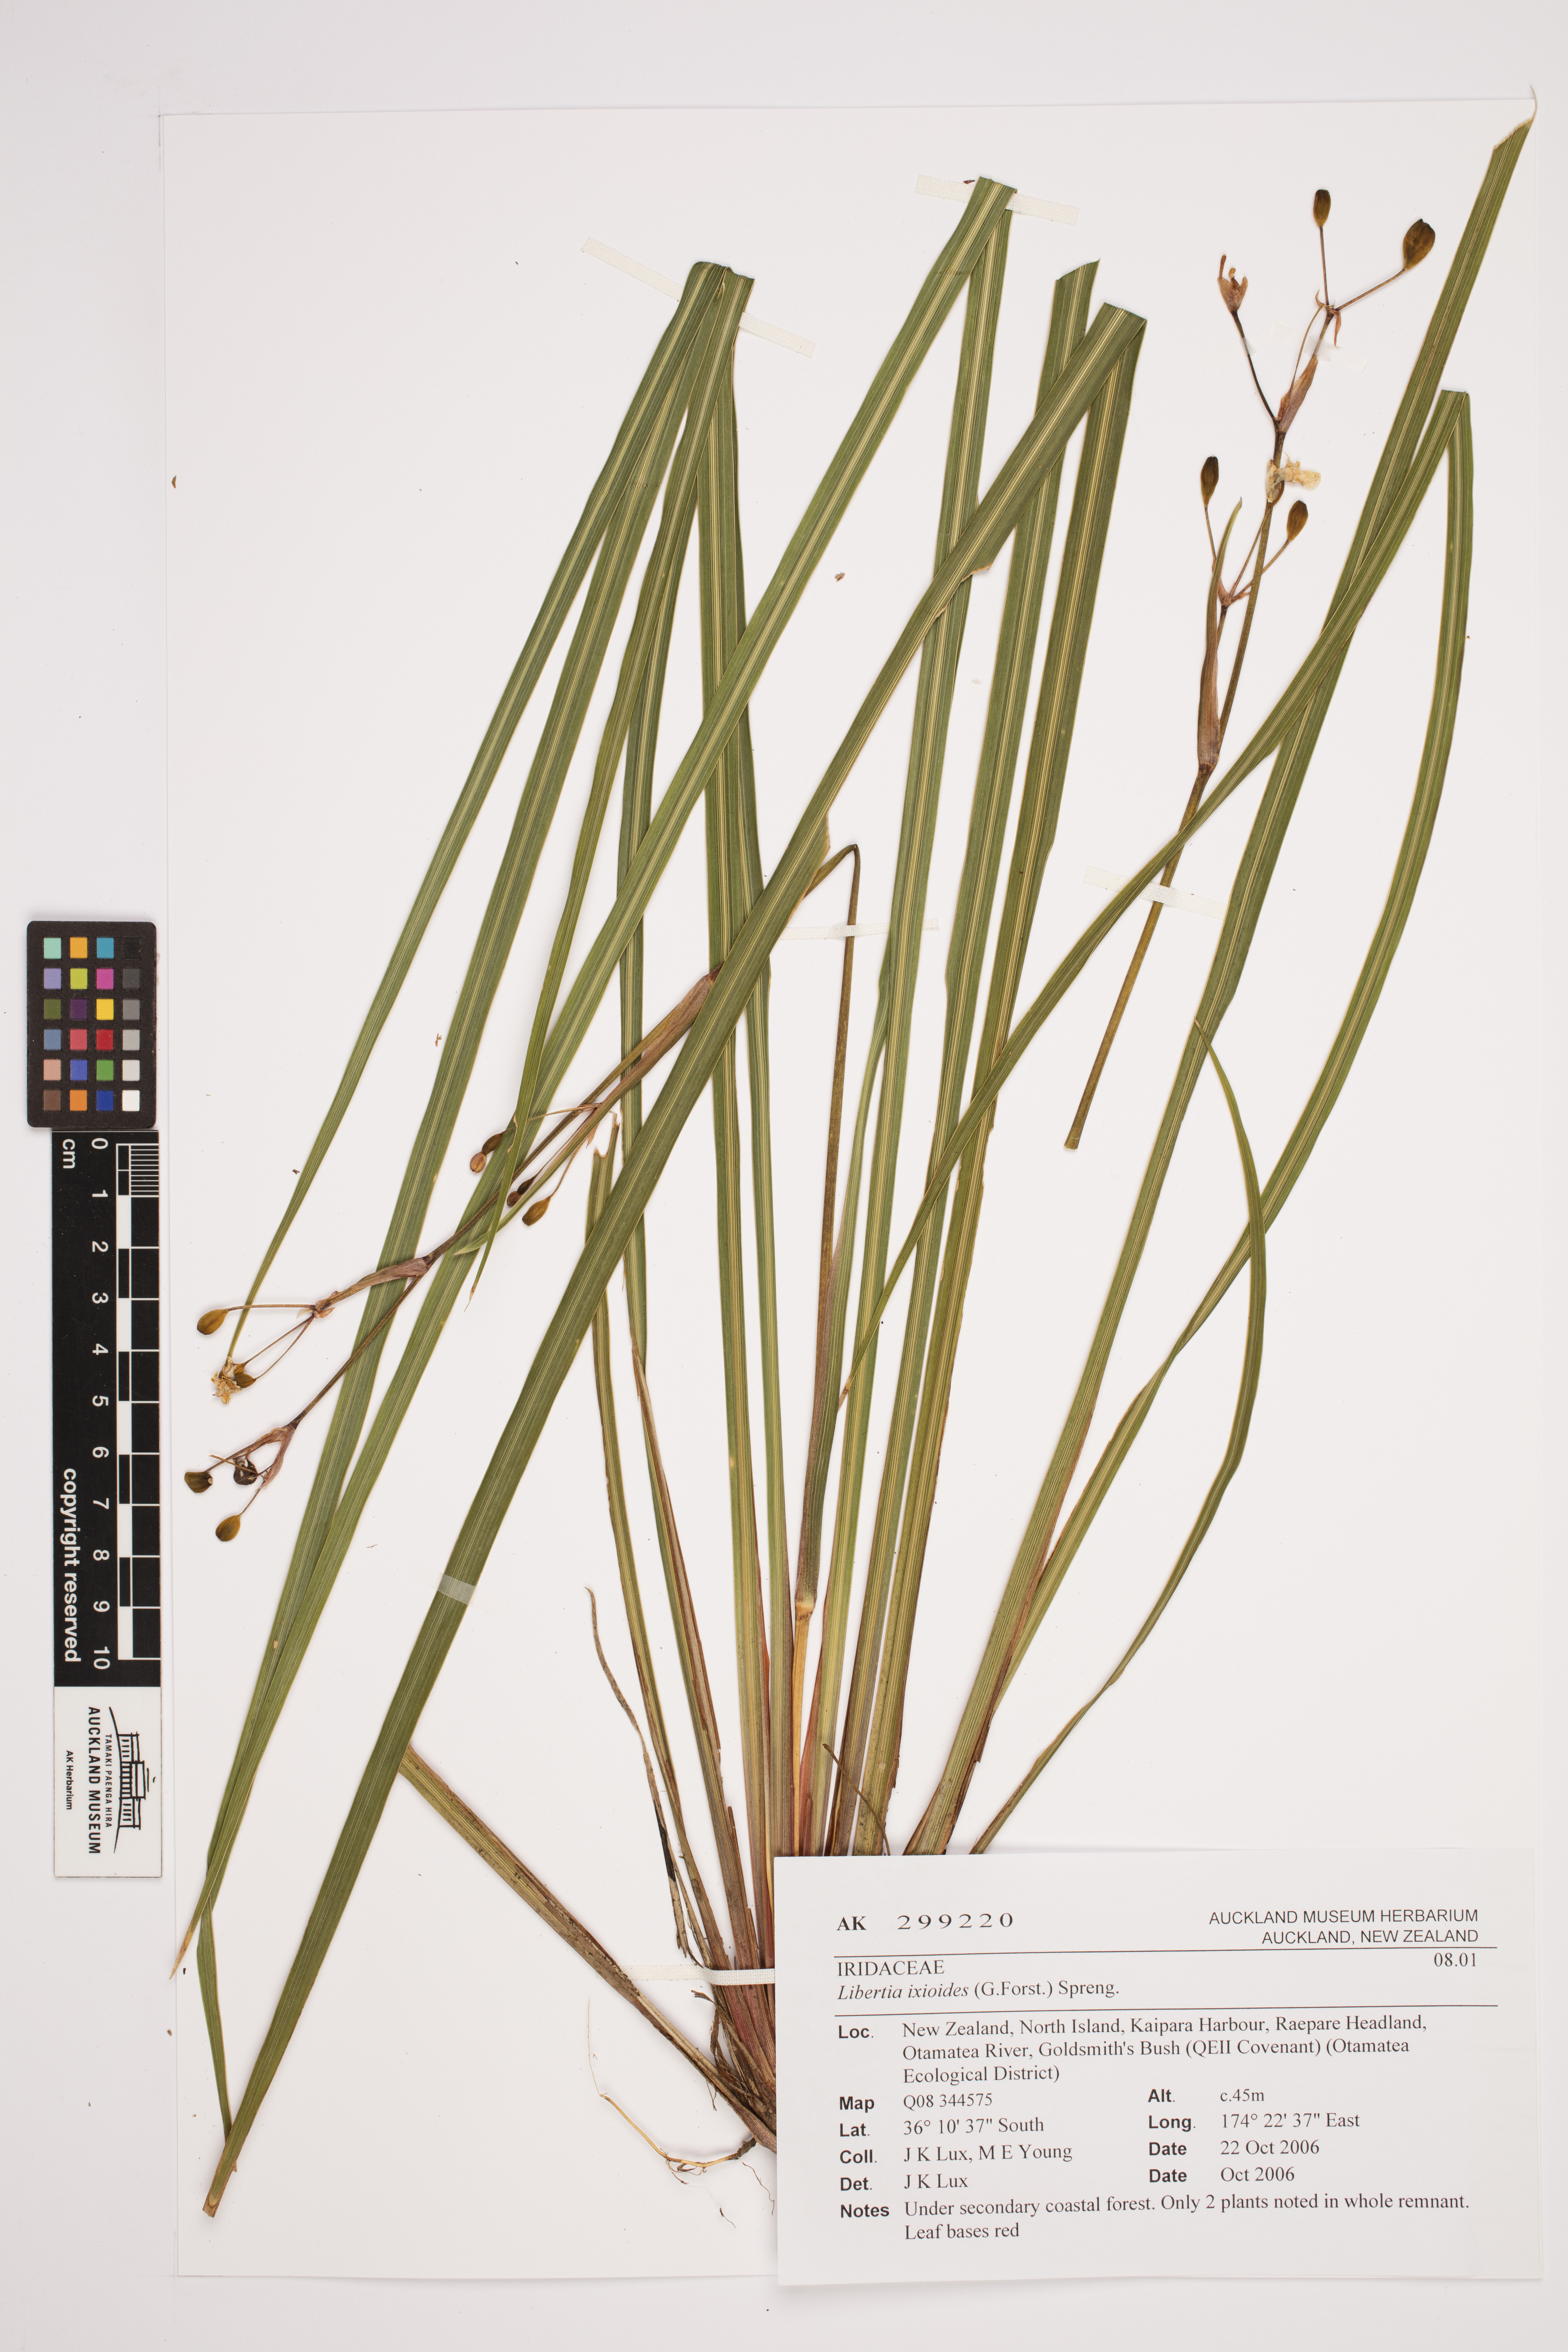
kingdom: Plantae
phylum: Tracheophyta
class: Liliopsida
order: Asparagales
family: Iridaceae
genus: Libertia
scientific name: Libertia ixioides
